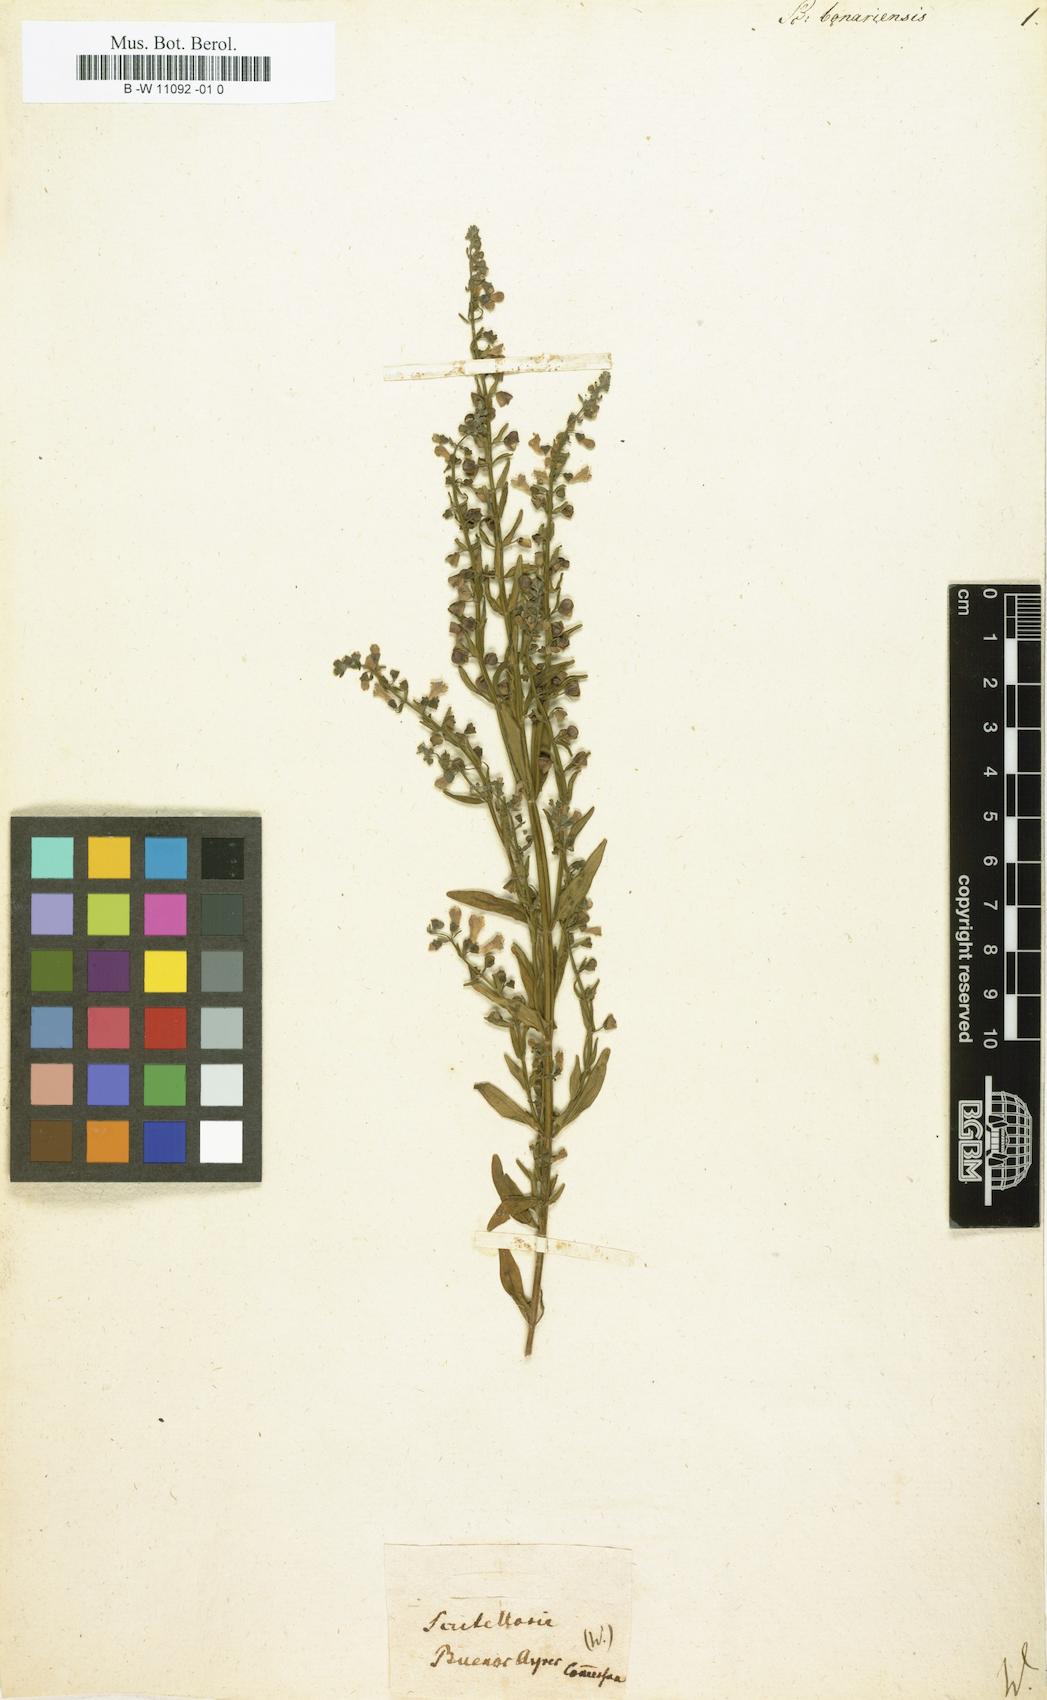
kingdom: Plantae
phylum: Tracheophyta
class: Magnoliopsida
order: Lamiales
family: Lamiaceae
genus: Scutellaria
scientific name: Scutellaria racemosa
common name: South american skullcap
